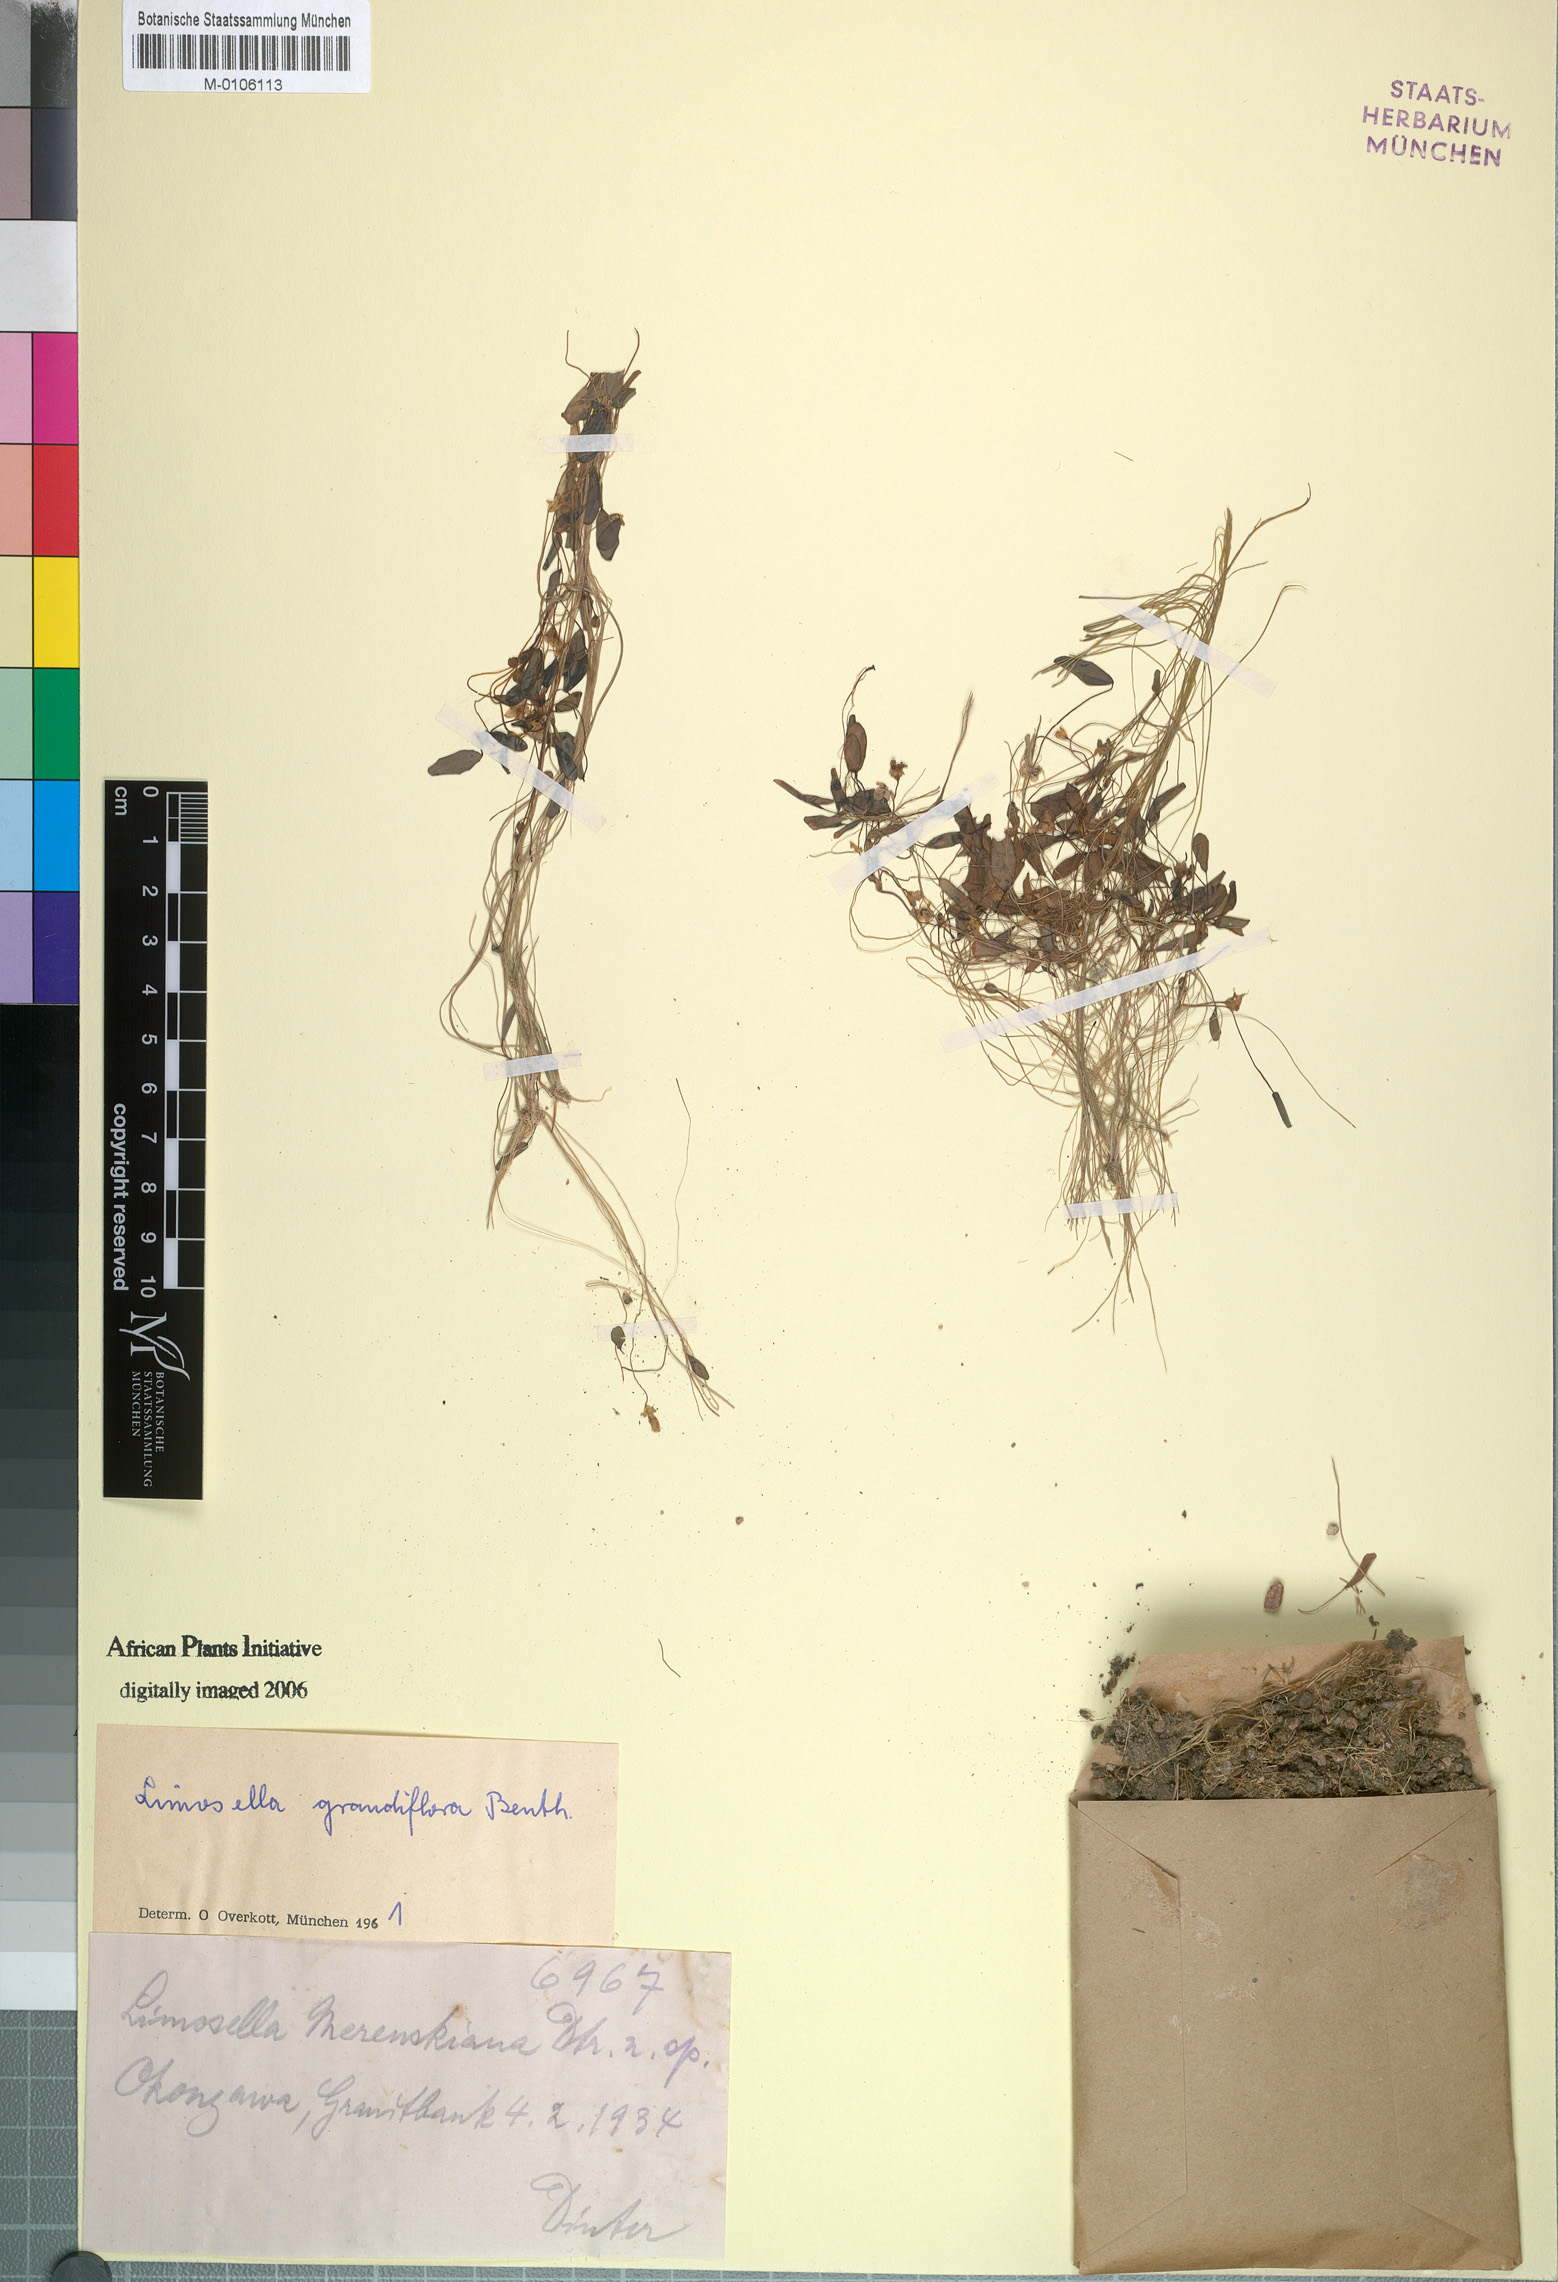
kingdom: Plantae
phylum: Tracheophyta
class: Magnoliopsida
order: Lamiales
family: Scrophulariaceae
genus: Limosella
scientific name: Limosella grandiflora
